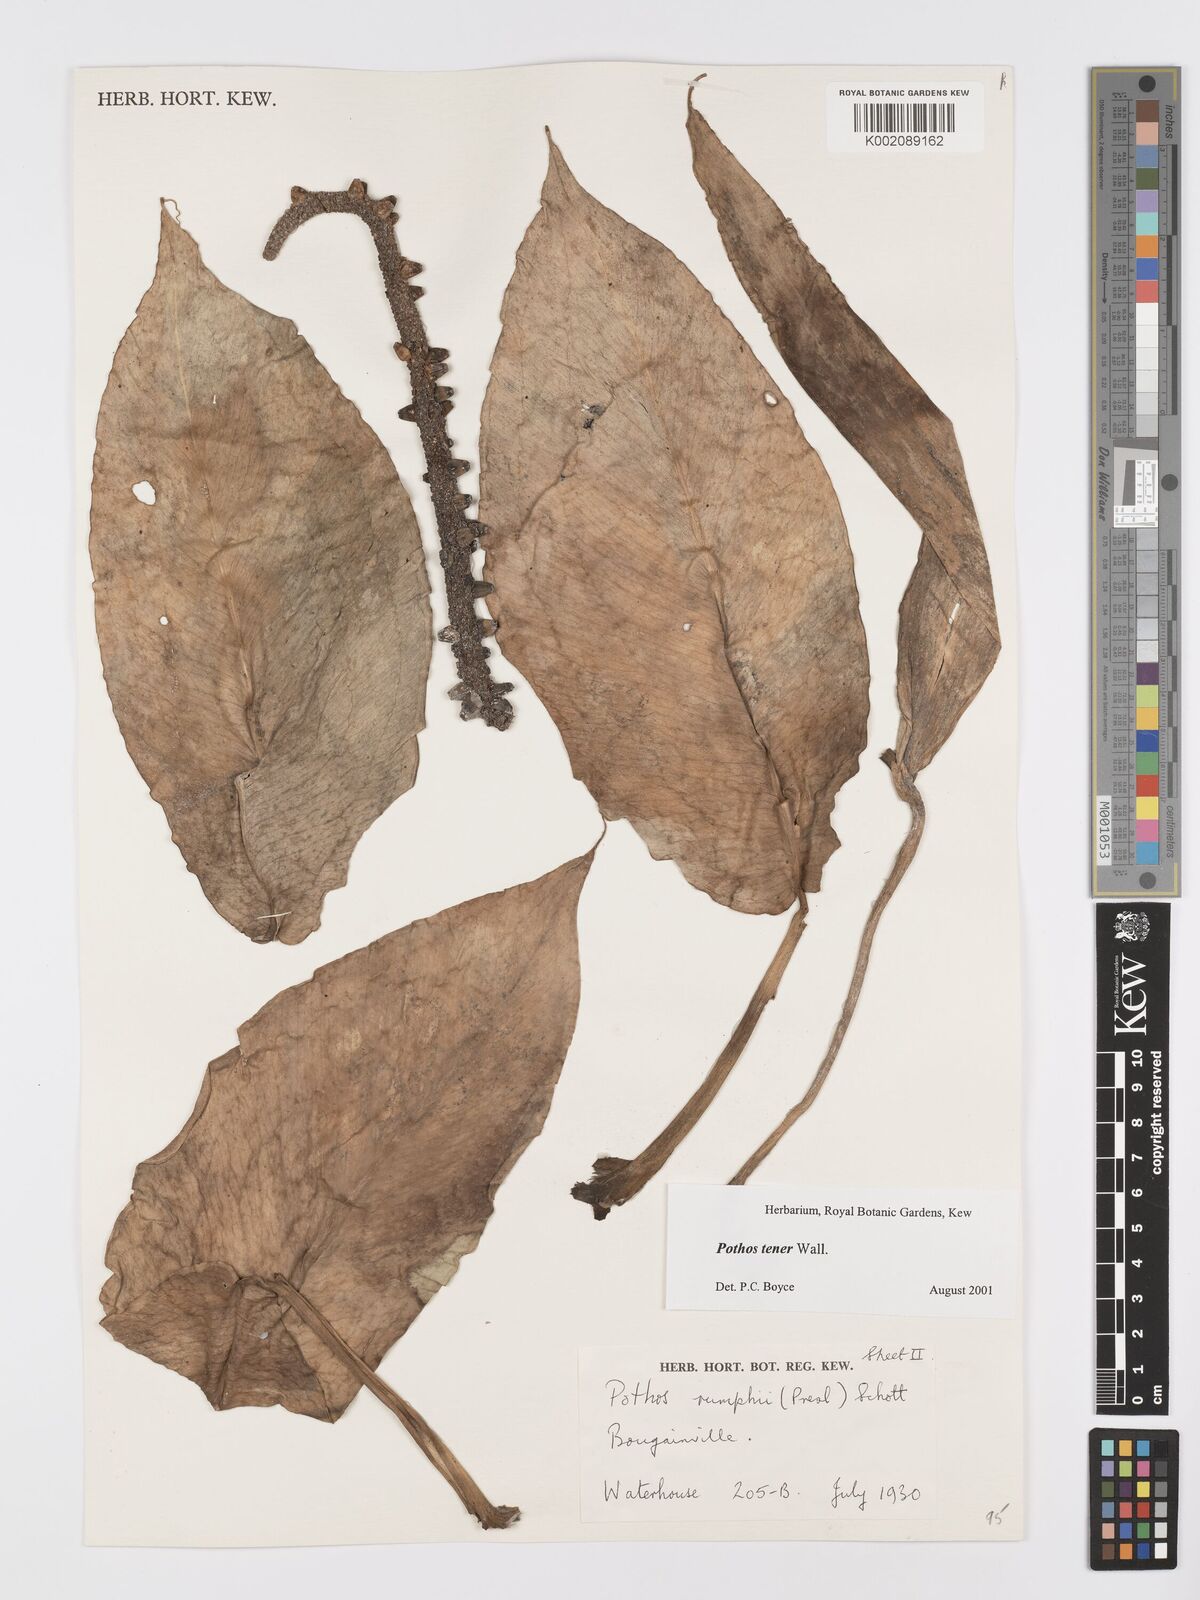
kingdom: Plantae
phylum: Tracheophyta
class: Liliopsida
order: Alismatales
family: Araceae
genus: Pothos
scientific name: Pothos tener
